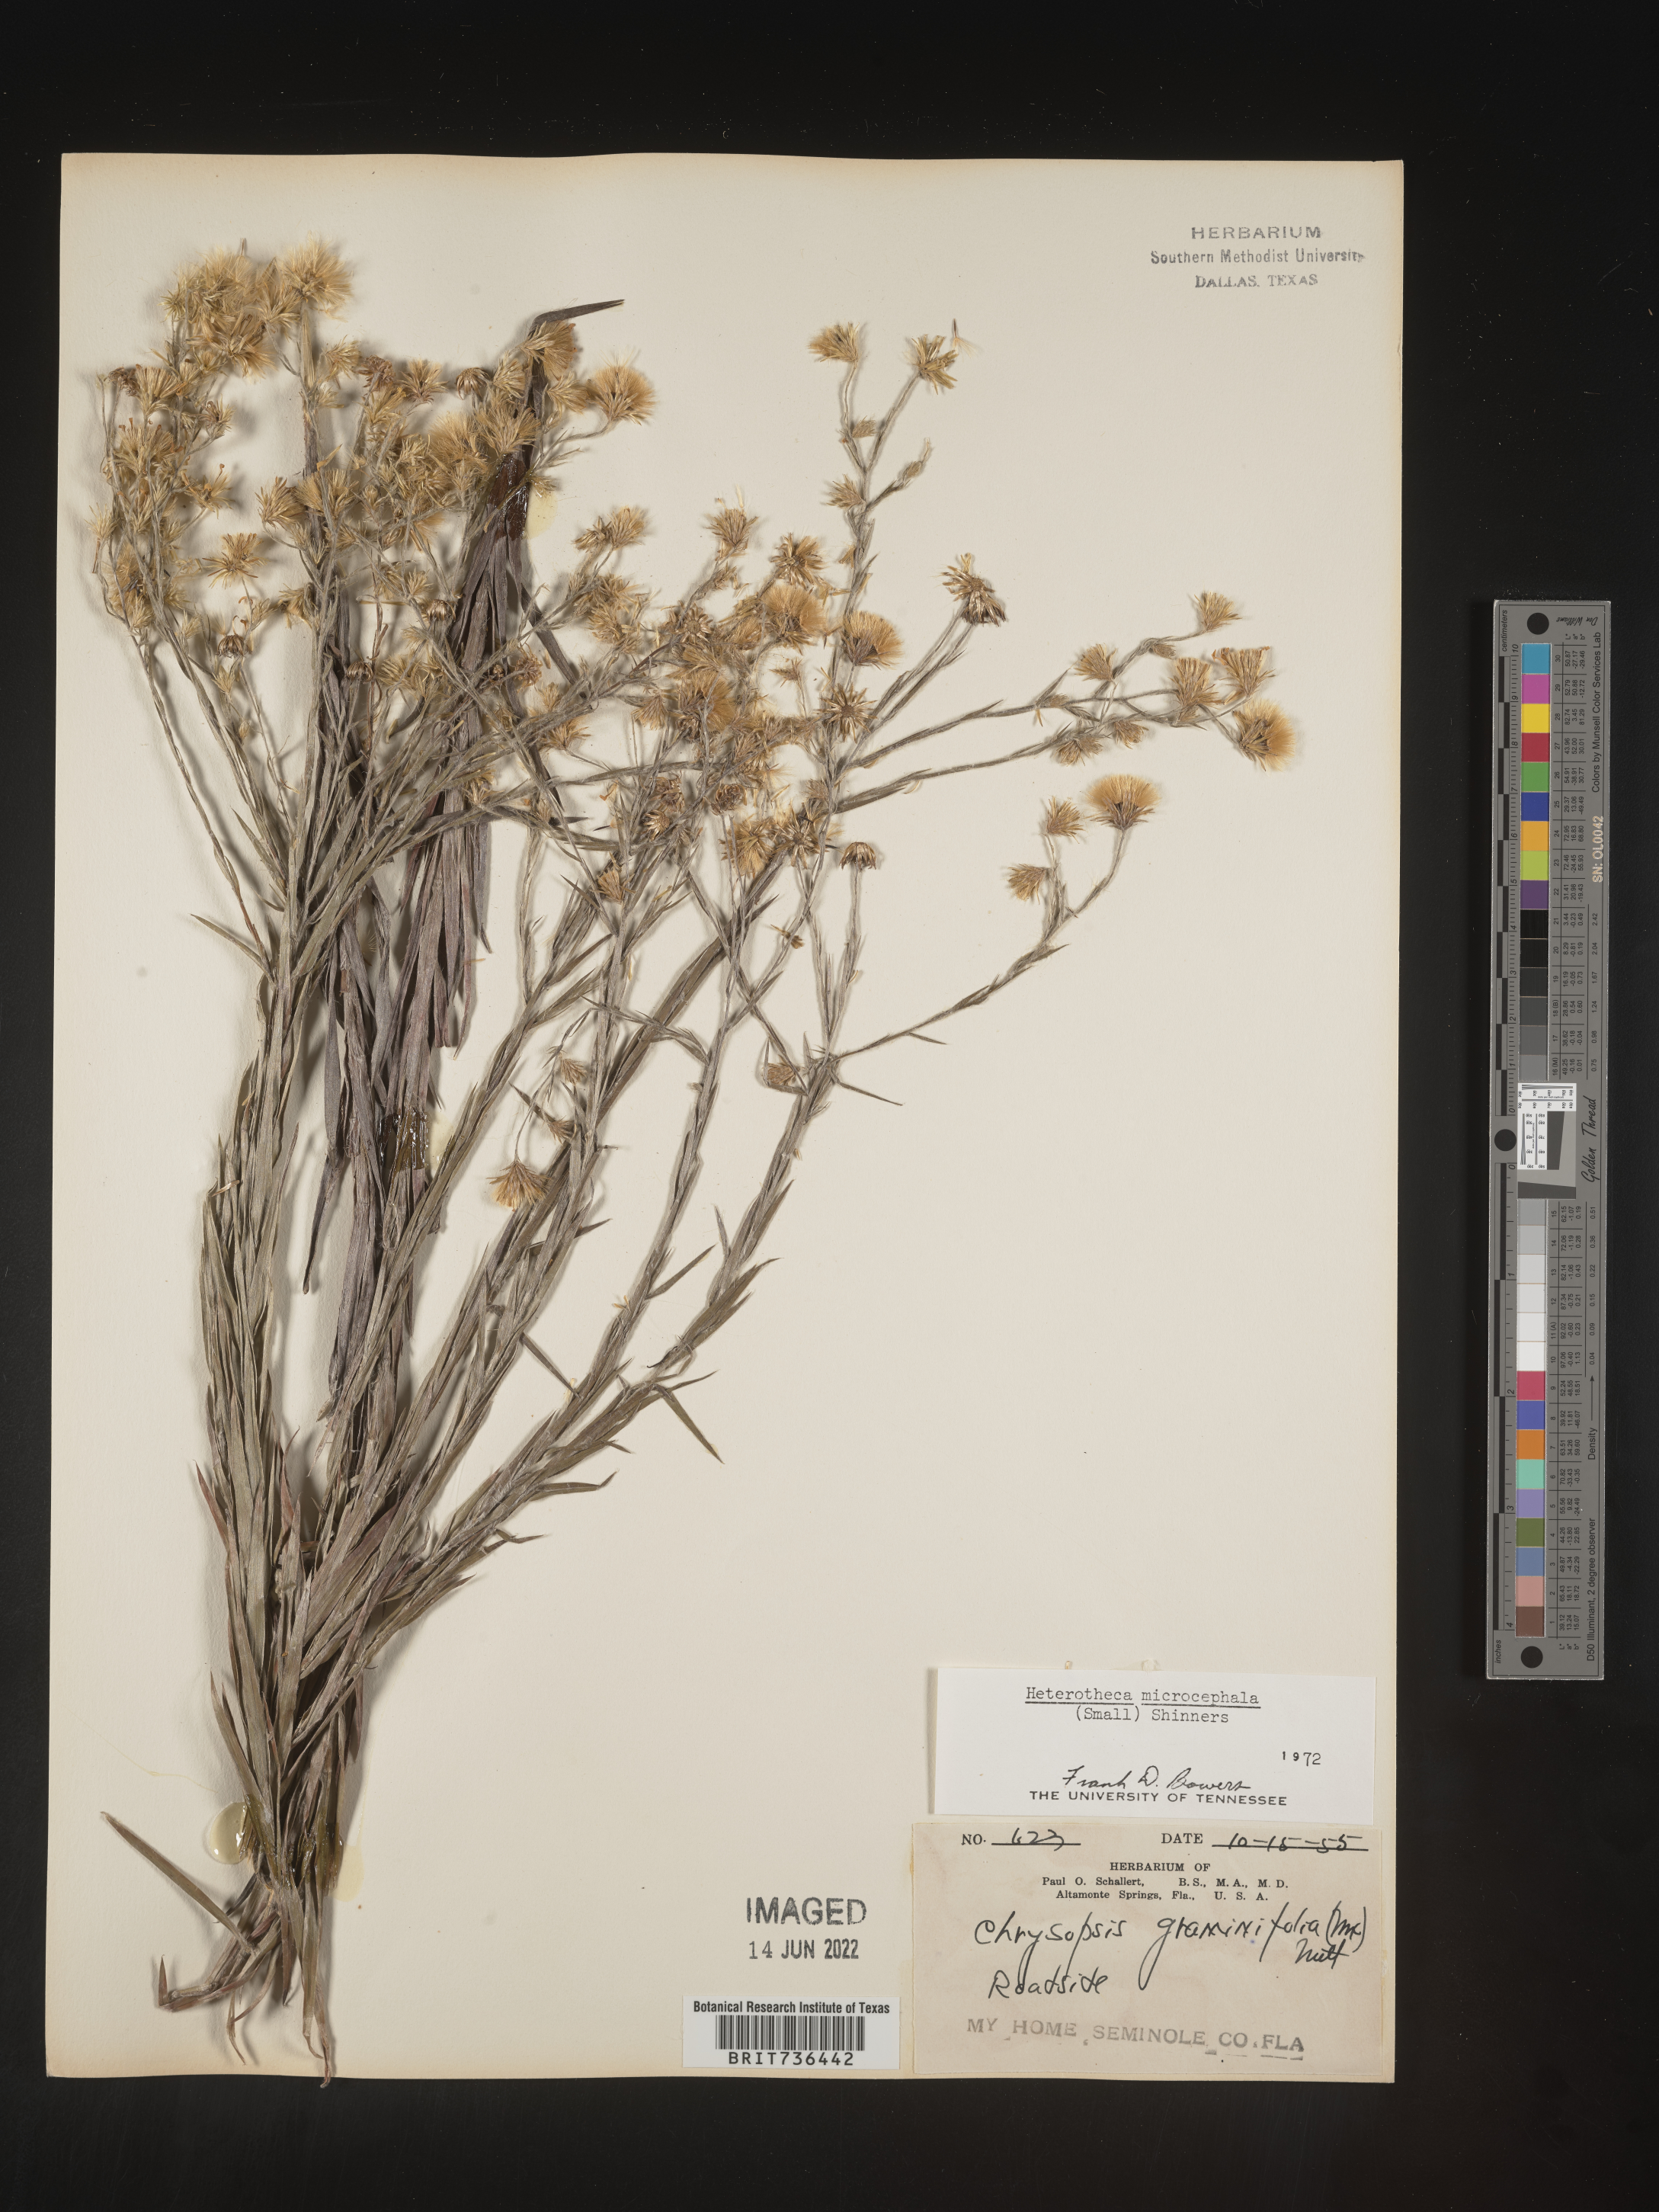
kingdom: Plantae
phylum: Tracheophyta
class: Magnoliopsida
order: Asterales
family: Asteraceae
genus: Pityopsis
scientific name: Pityopsis tracyi
